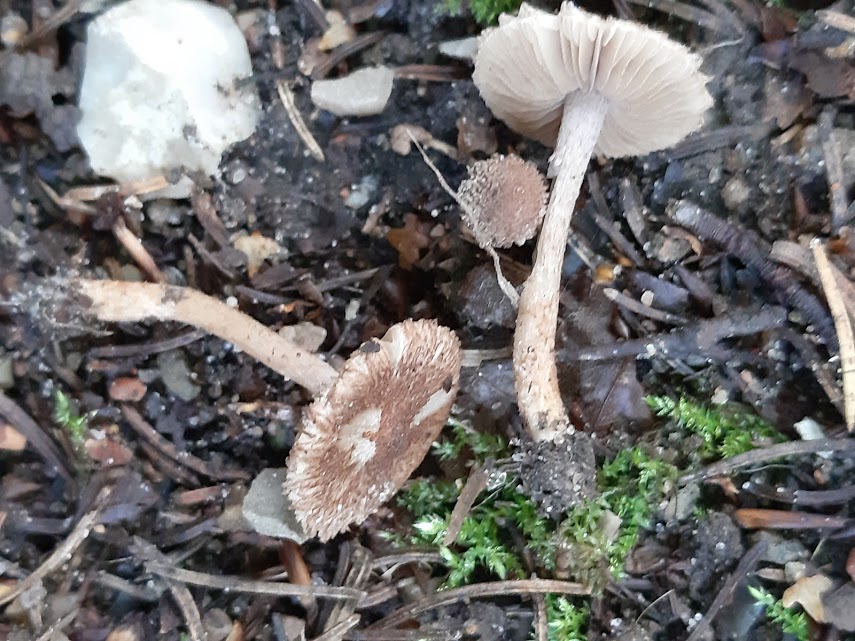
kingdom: Fungi
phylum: Basidiomycota
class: Agaricomycetes
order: Agaricales
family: Inocybaceae
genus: Inocybe
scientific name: Inocybe
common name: trævlhat
